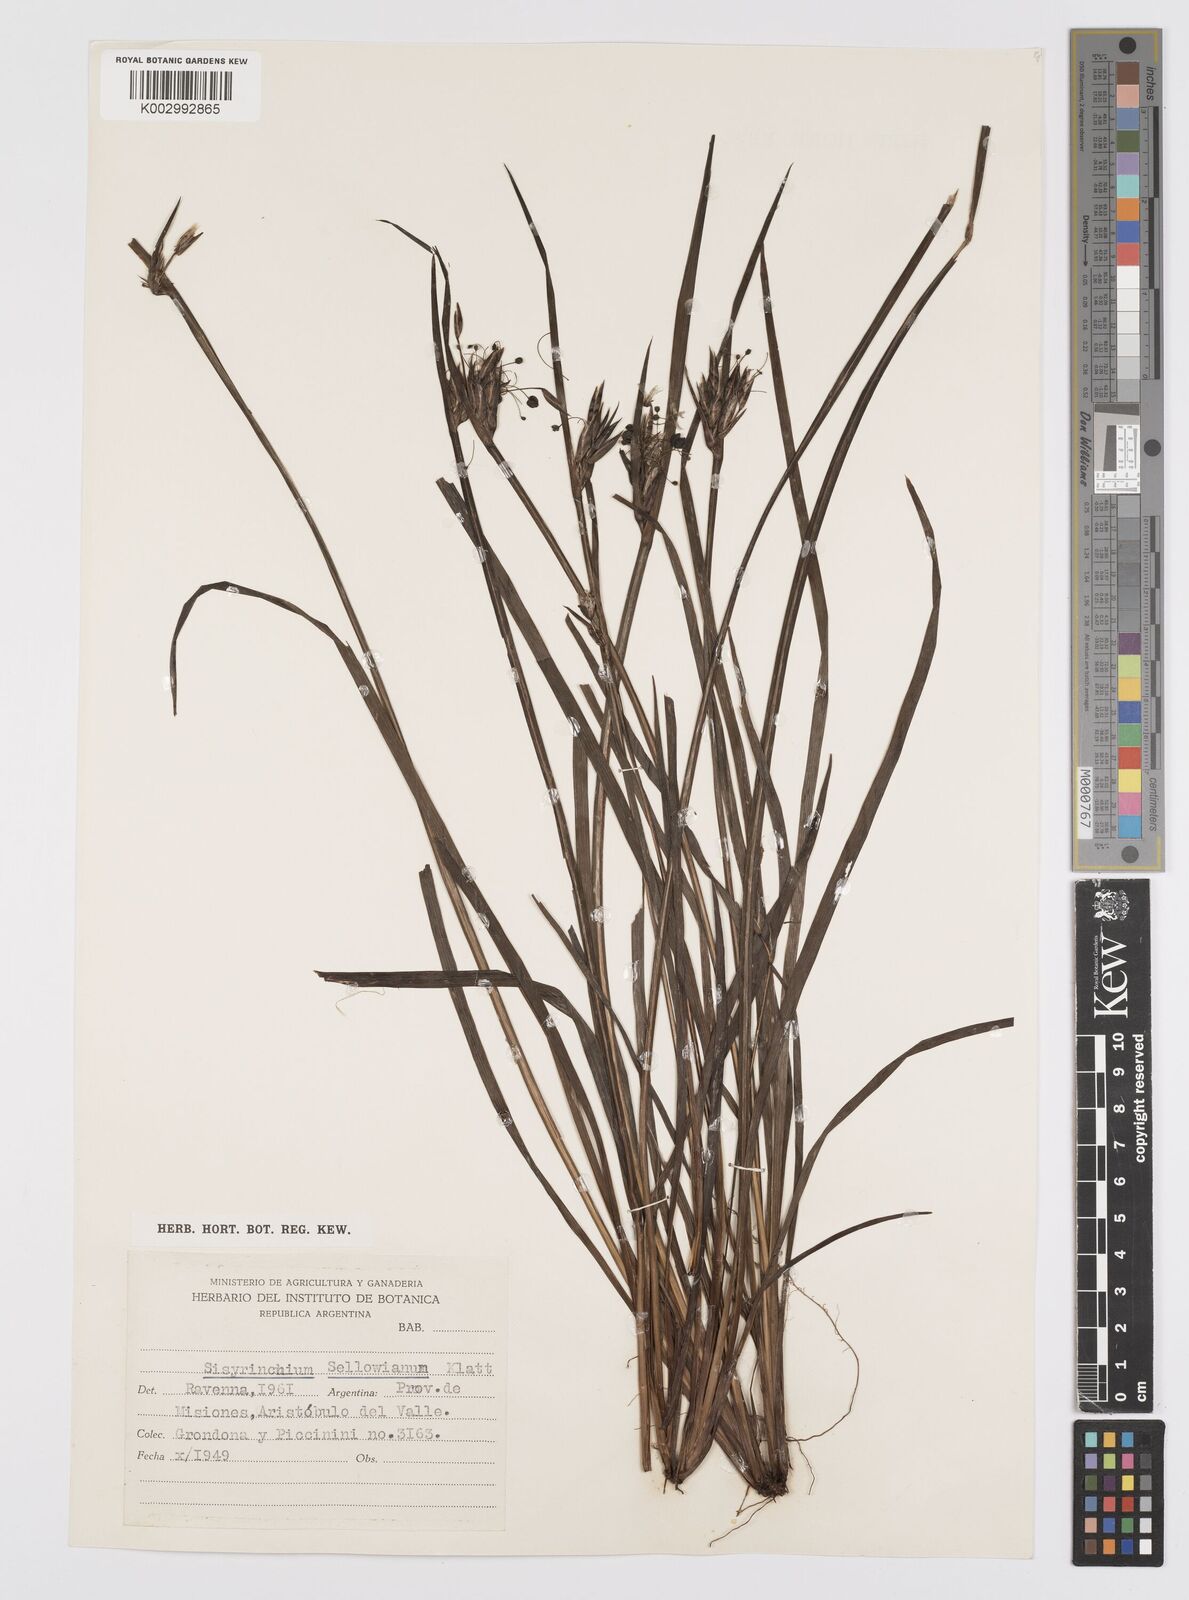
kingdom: Plantae
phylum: Tracheophyta
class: Liliopsida
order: Asparagales
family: Iridaceae
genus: Sisyrinchium
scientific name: Sisyrinchium sellowianum
